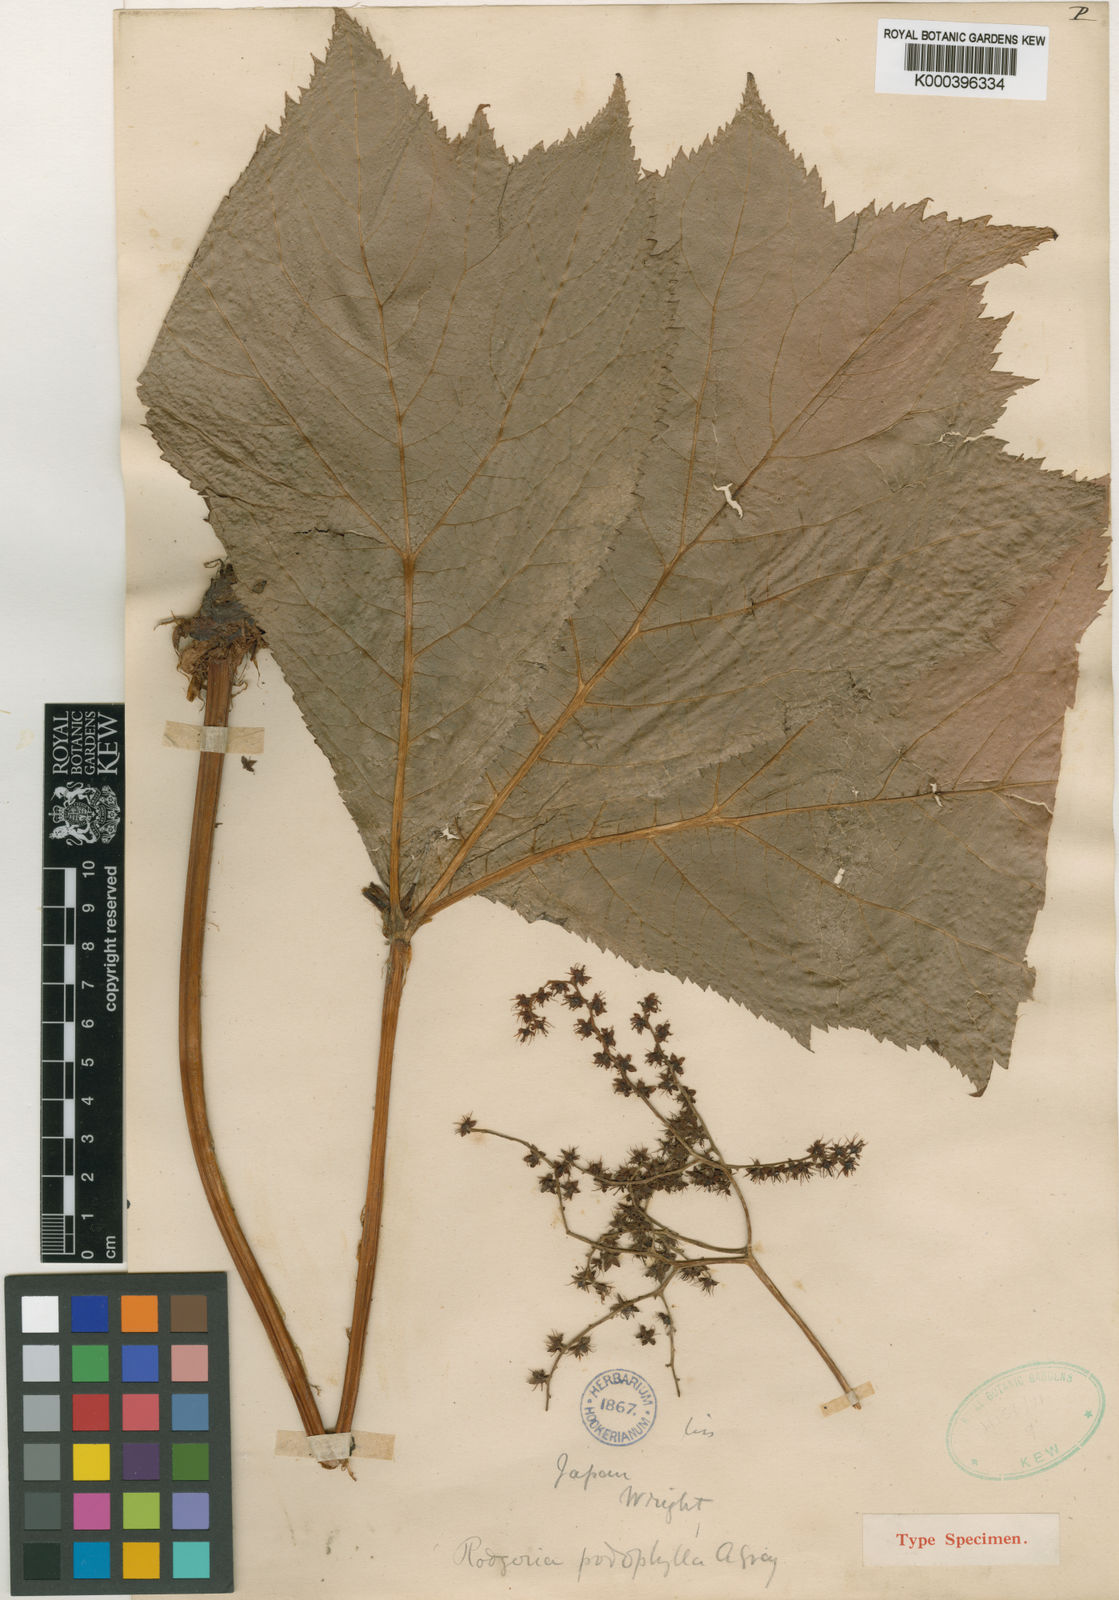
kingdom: Plantae
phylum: Tracheophyta
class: Magnoliopsida
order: Saxifragales
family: Saxifragaceae
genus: Rodgersia
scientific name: Rodgersia podophylla
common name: Rodgersia
